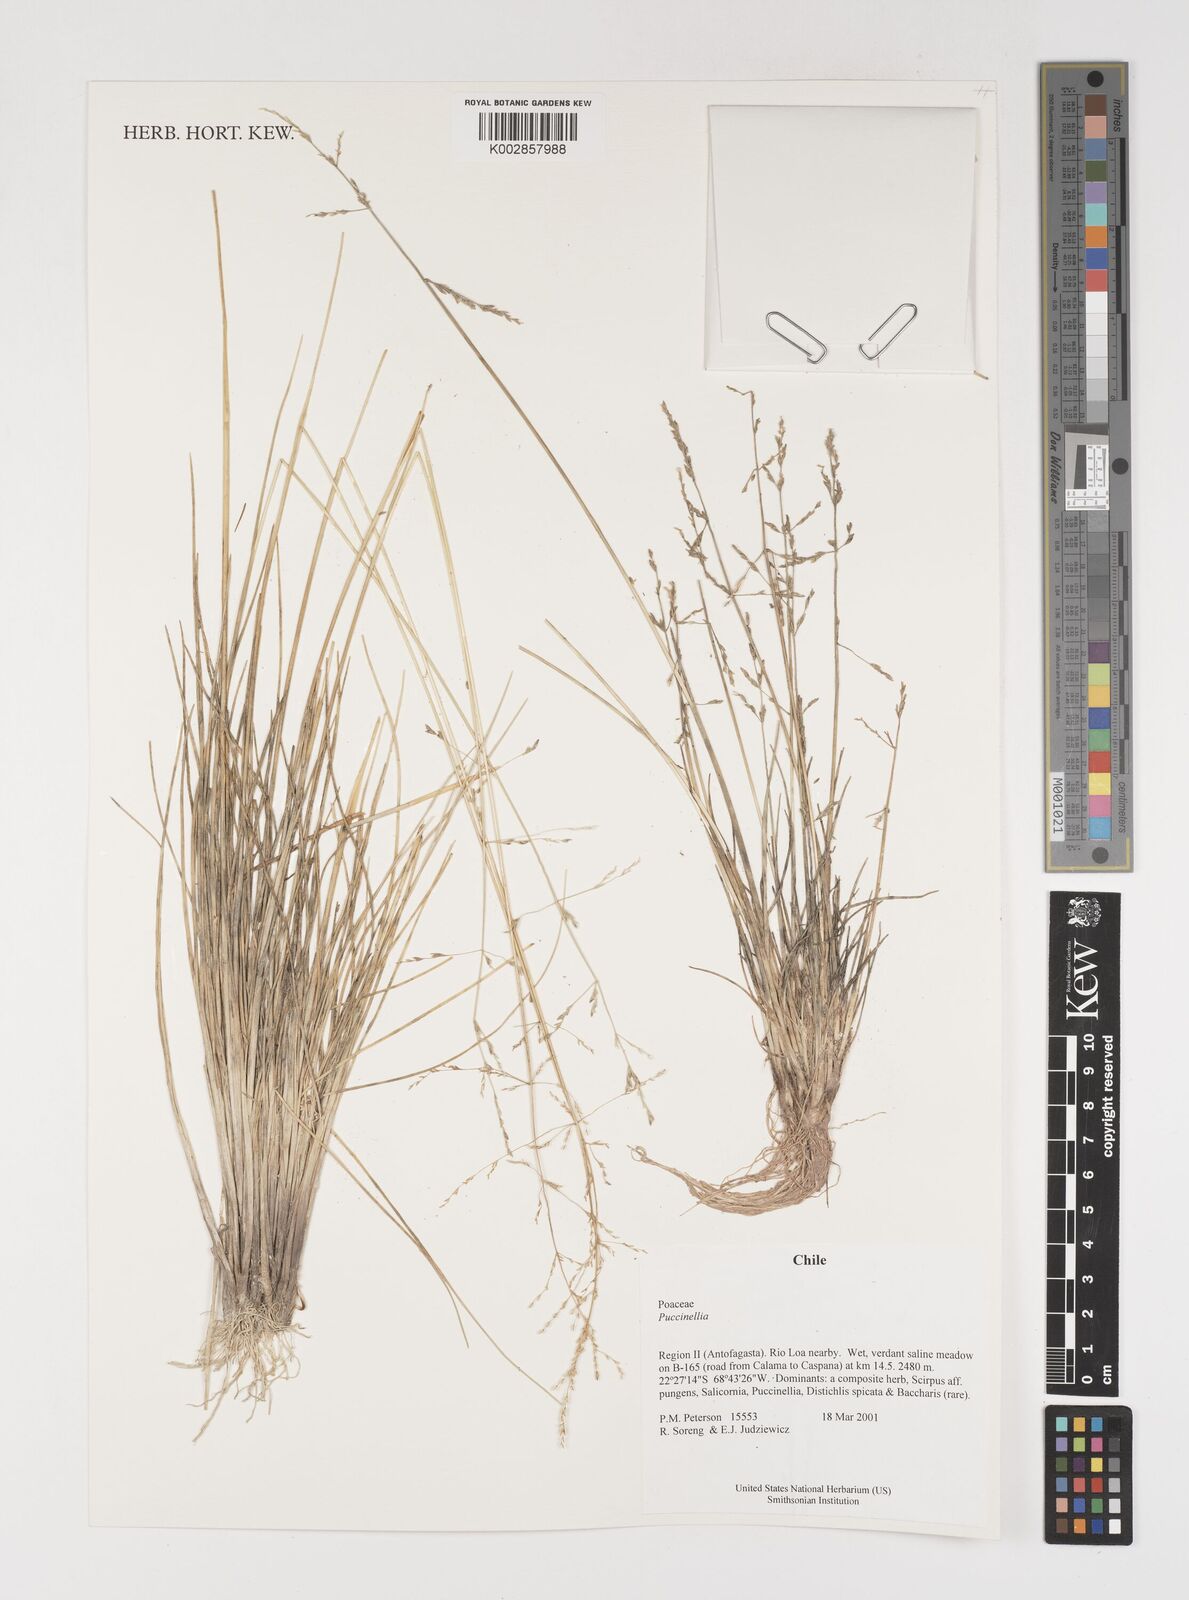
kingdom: Plantae
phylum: Tracheophyta
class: Liliopsida
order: Poales
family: Poaceae
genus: Puccinellia
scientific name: Puccinellia
